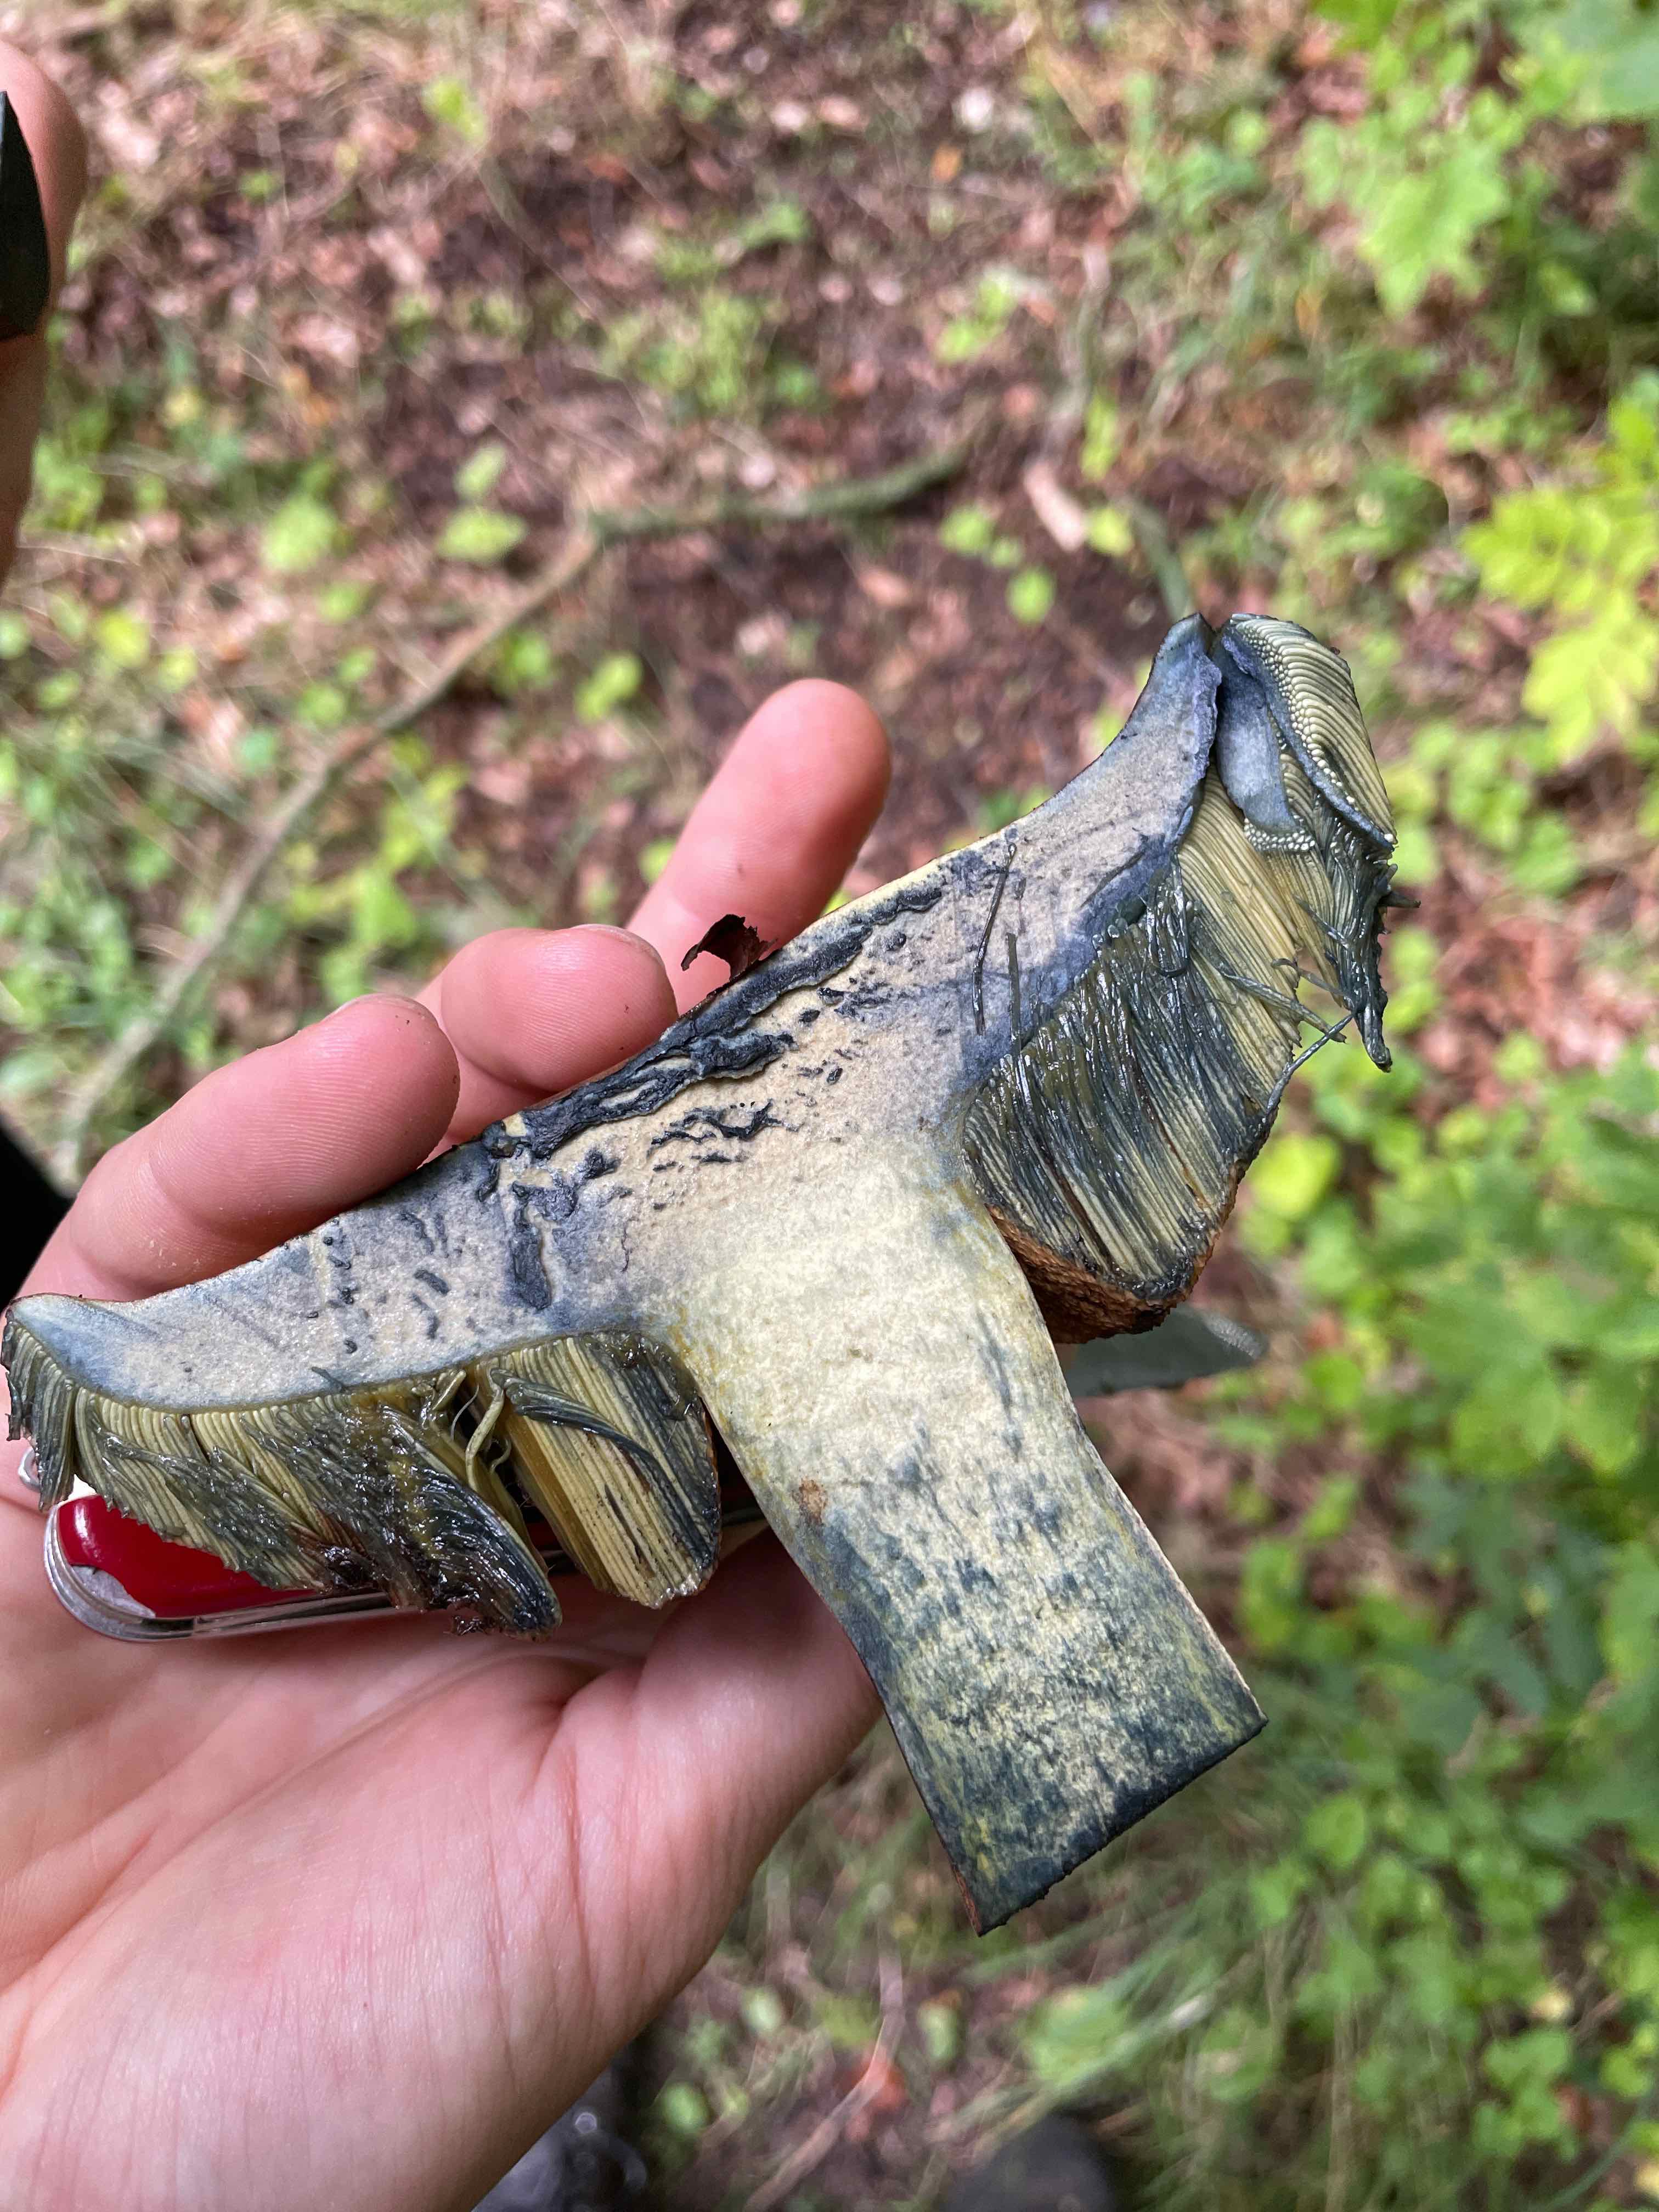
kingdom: Fungi
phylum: Basidiomycota
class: Agaricomycetes
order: Boletales
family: Boletaceae
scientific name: Boletaceae
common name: rørhatfamilien
